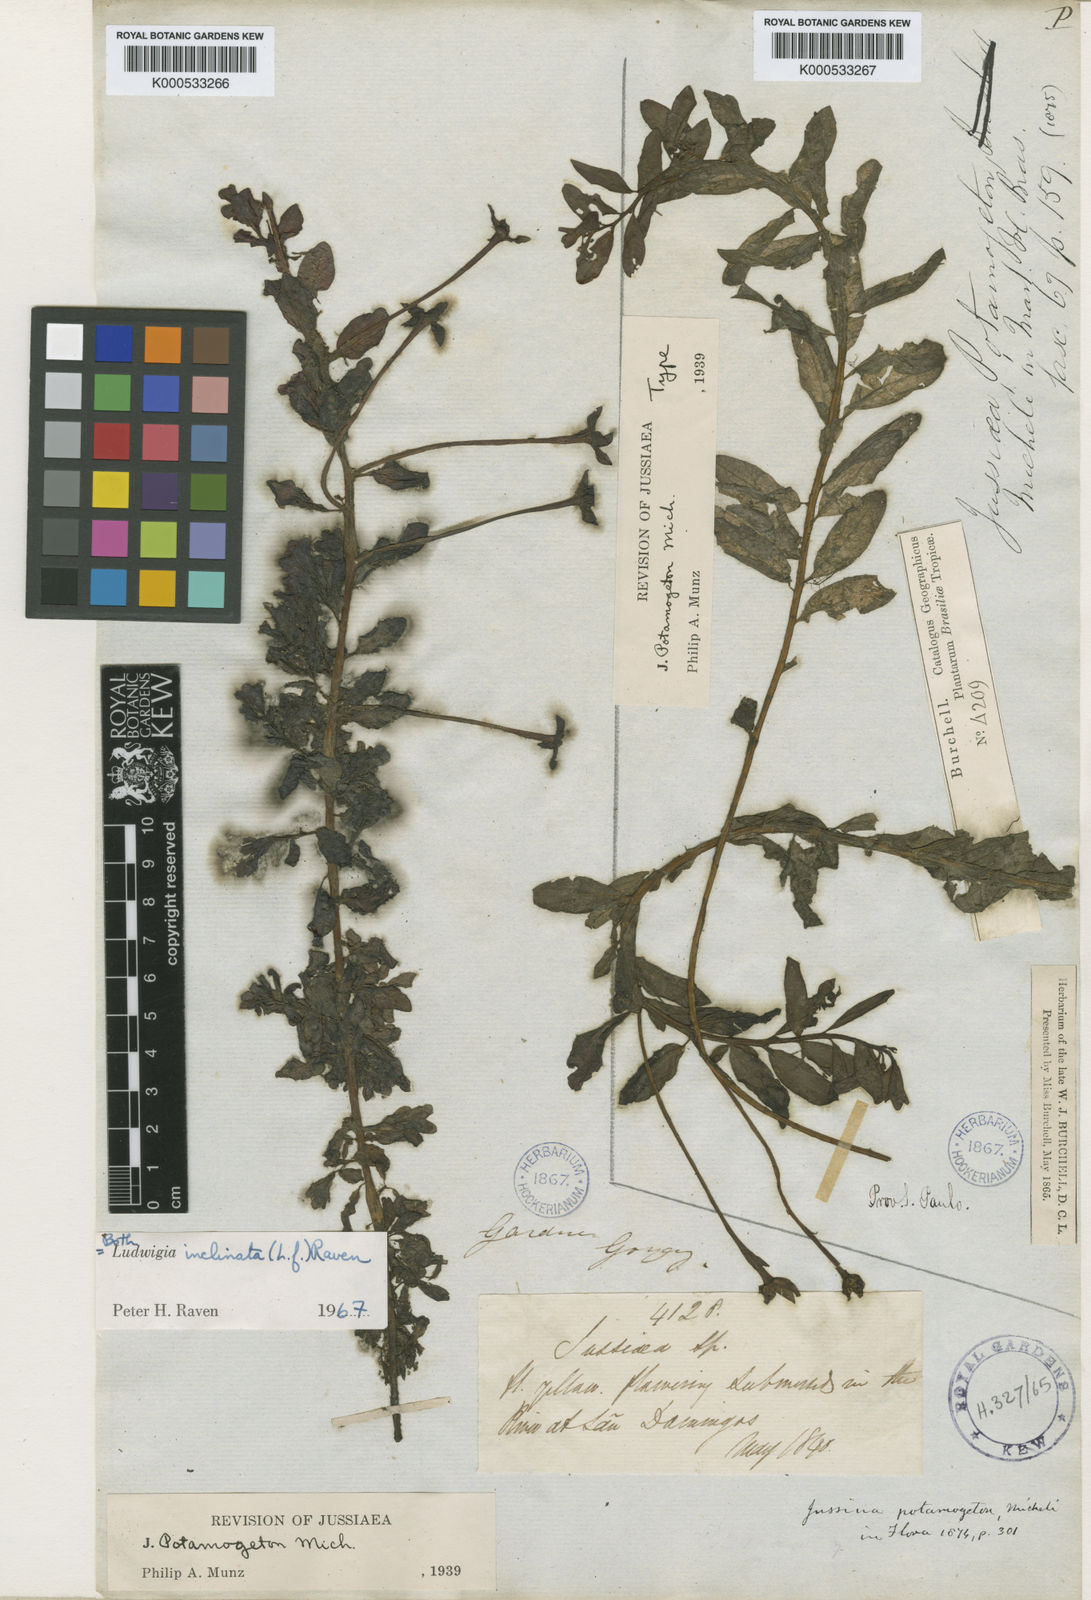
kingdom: Plantae
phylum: Tracheophyta
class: Magnoliopsida
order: Myrtales
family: Onagraceae
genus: Ludwigia
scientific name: Ludwigia potamogeton
